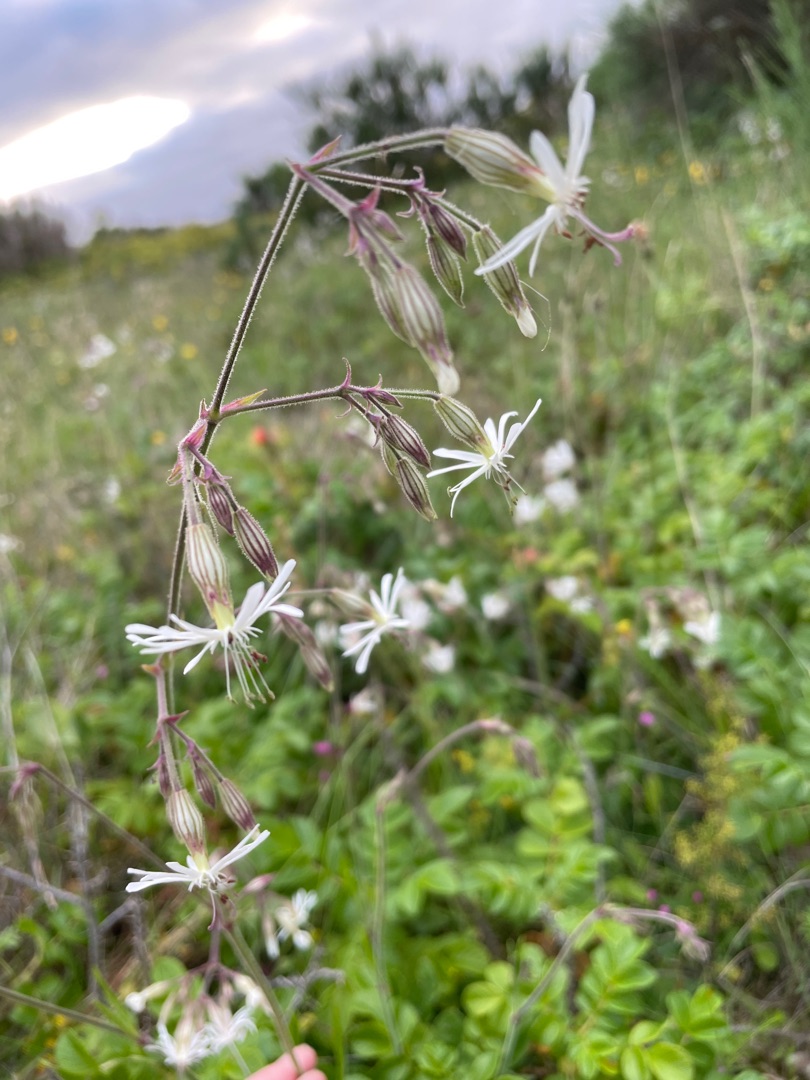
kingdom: Plantae
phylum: Tracheophyta
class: Magnoliopsida
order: Caryophyllales
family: Caryophyllaceae
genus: Silene
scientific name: Silene nutans
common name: Nikkende limurt
